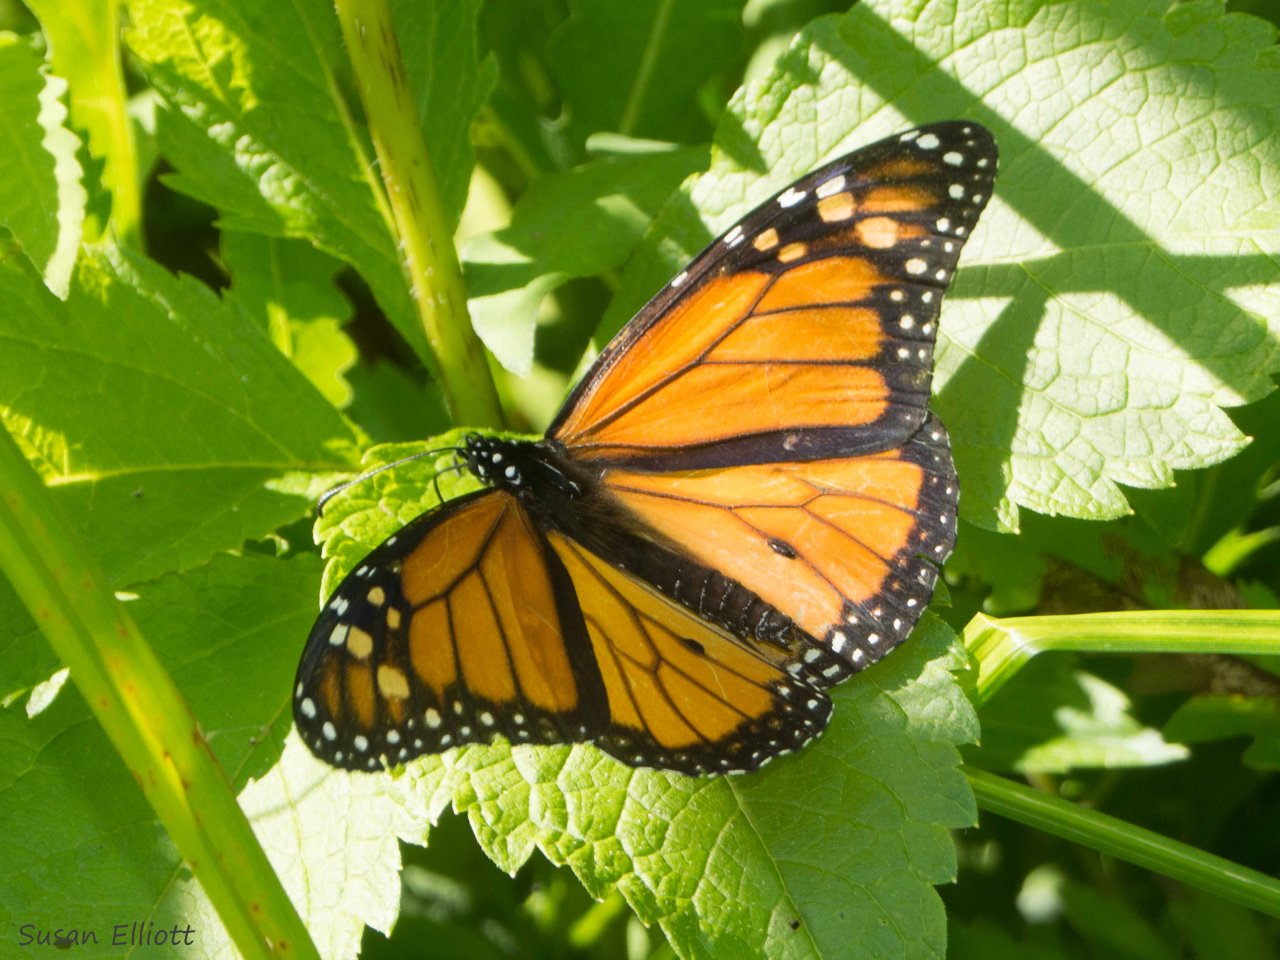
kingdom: Animalia
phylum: Arthropoda
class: Insecta
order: Lepidoptera
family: Nymphalidae
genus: Danaus
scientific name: Danaus plexippus
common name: Monarch
